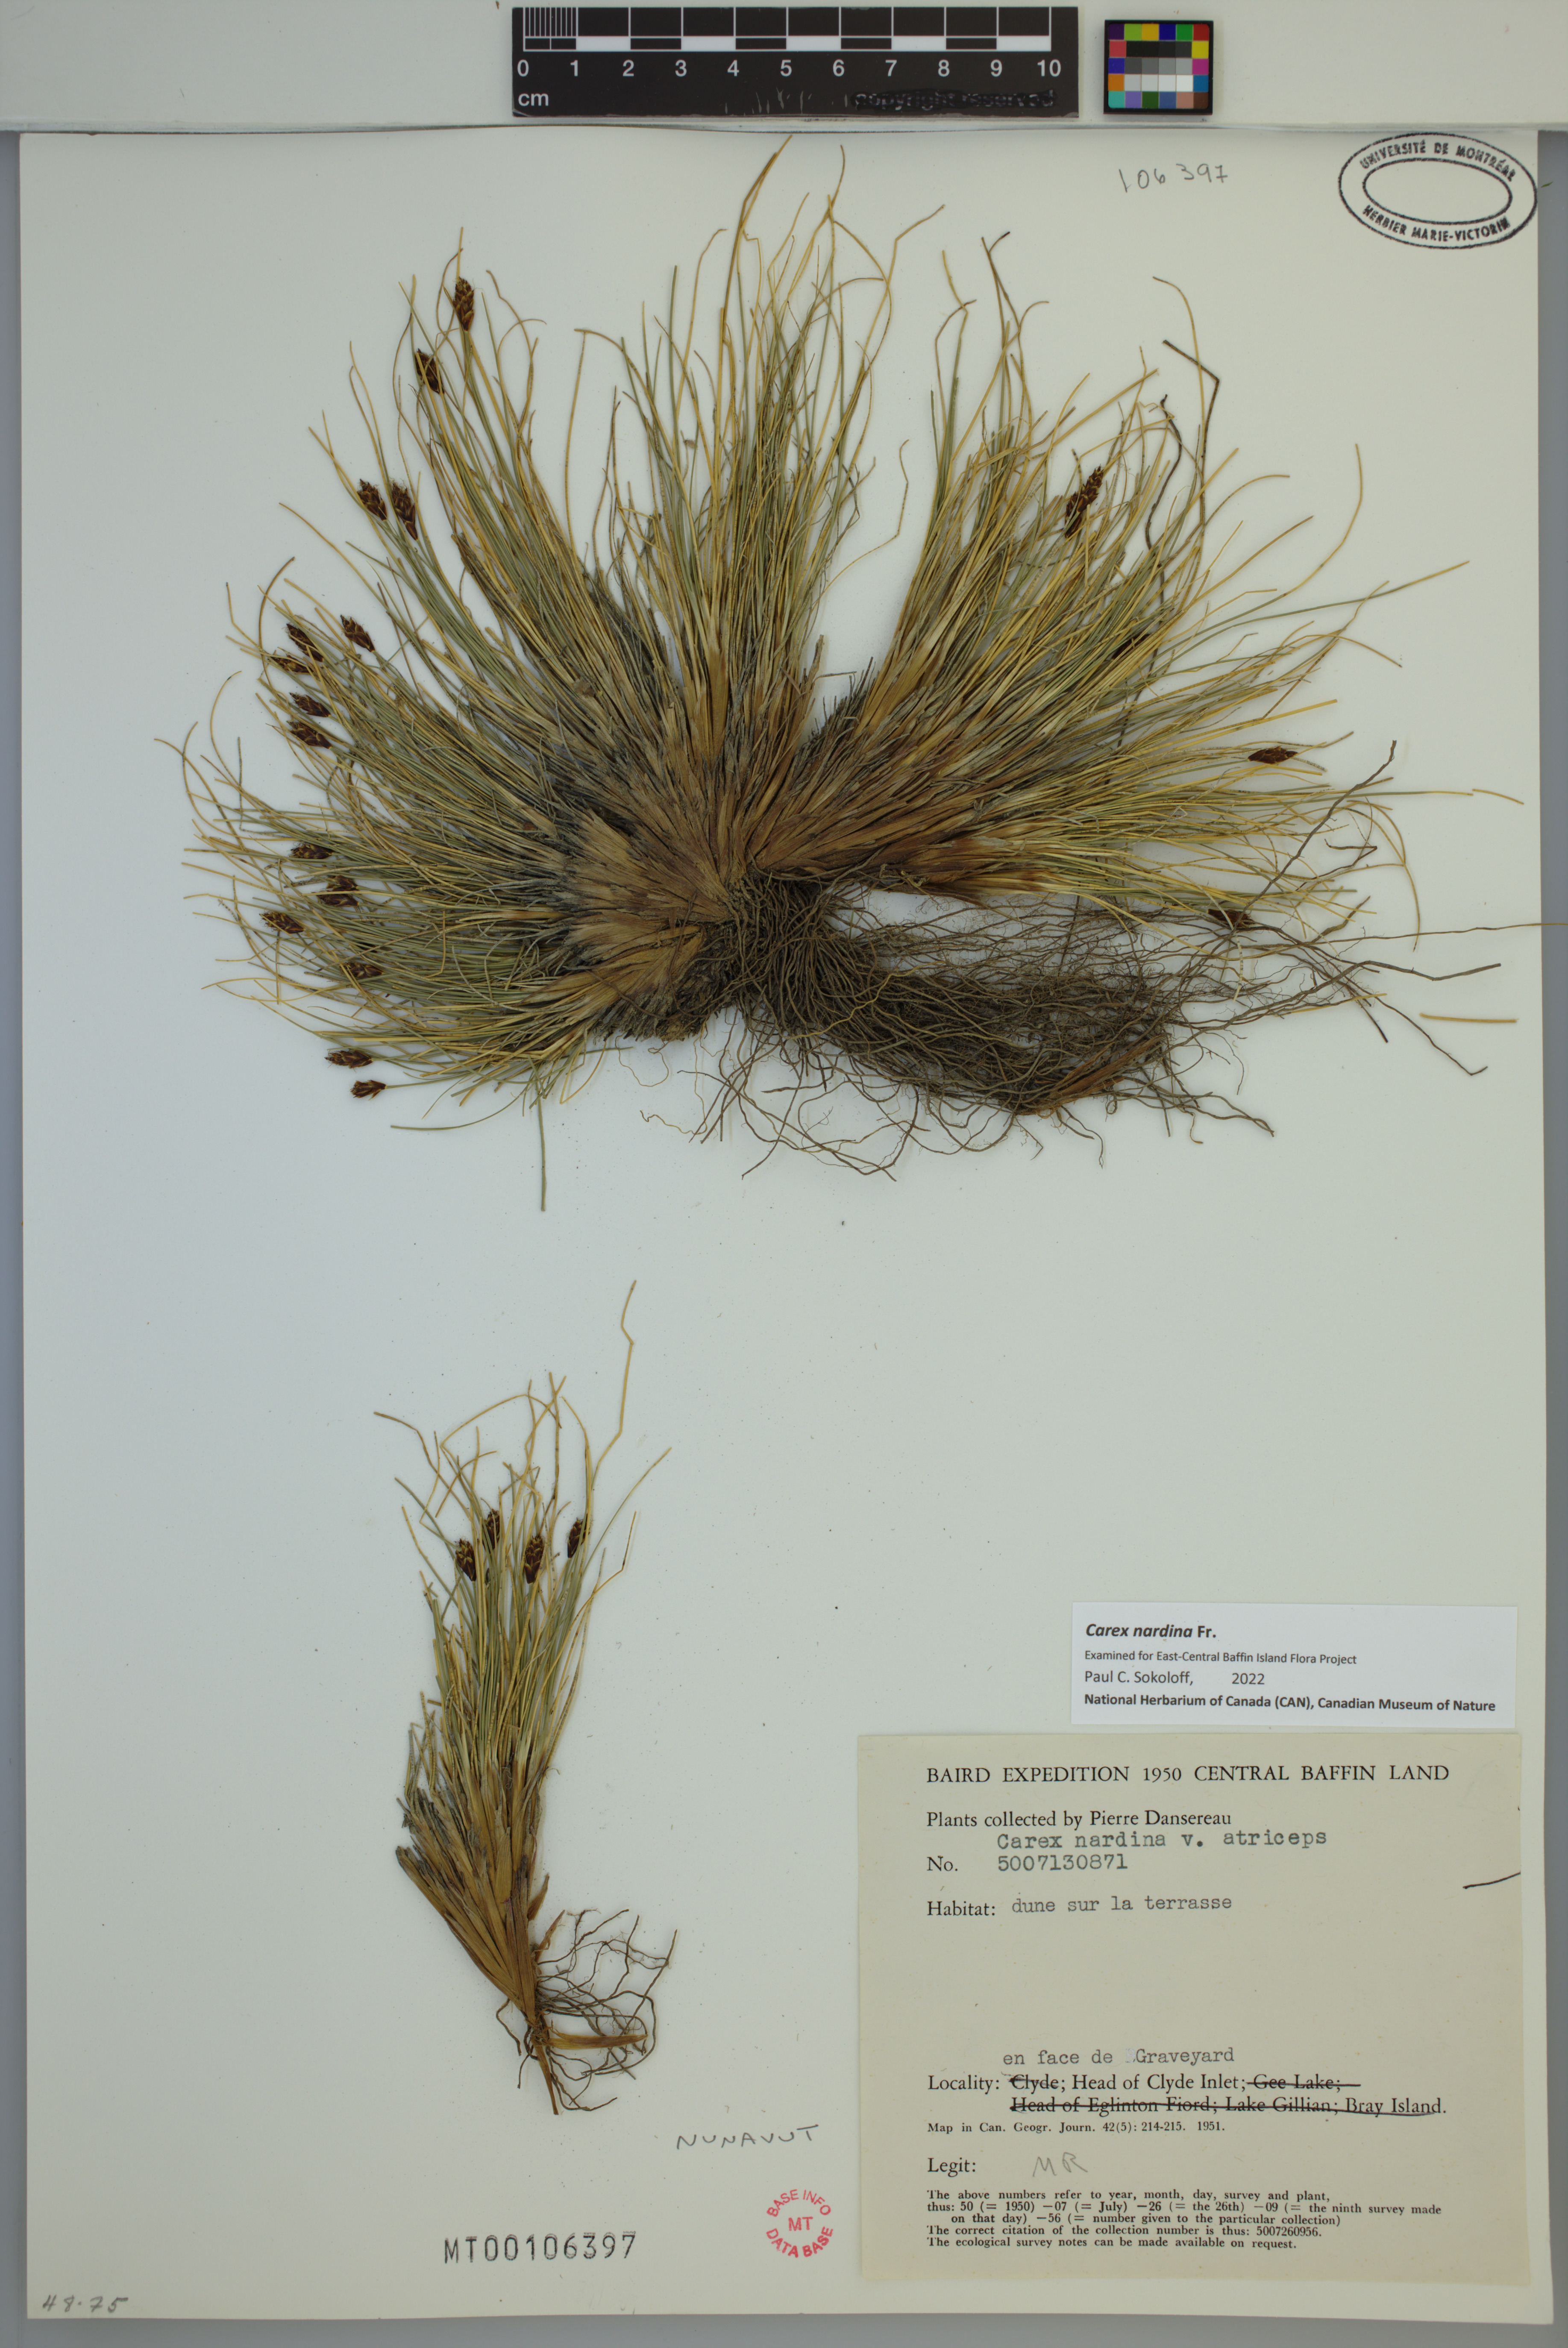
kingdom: Plantae
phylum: Tracheophyta
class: Liliopsida
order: Poales
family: Cyperaceae
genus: Carex
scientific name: Carex nardina
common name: Nard sedge
